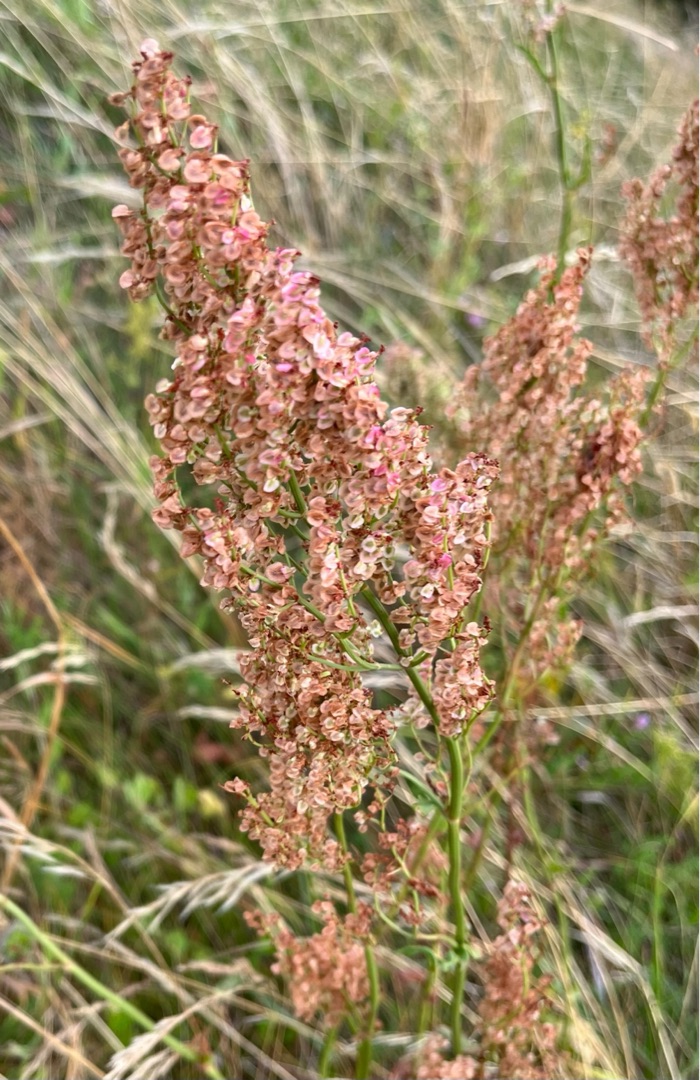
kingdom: Plantae
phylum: Tracheophyta
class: Magnoliopsida
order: Asterales
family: Asteraceae
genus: Achillea
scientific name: Achillea millefolium
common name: Almindelig røllike
